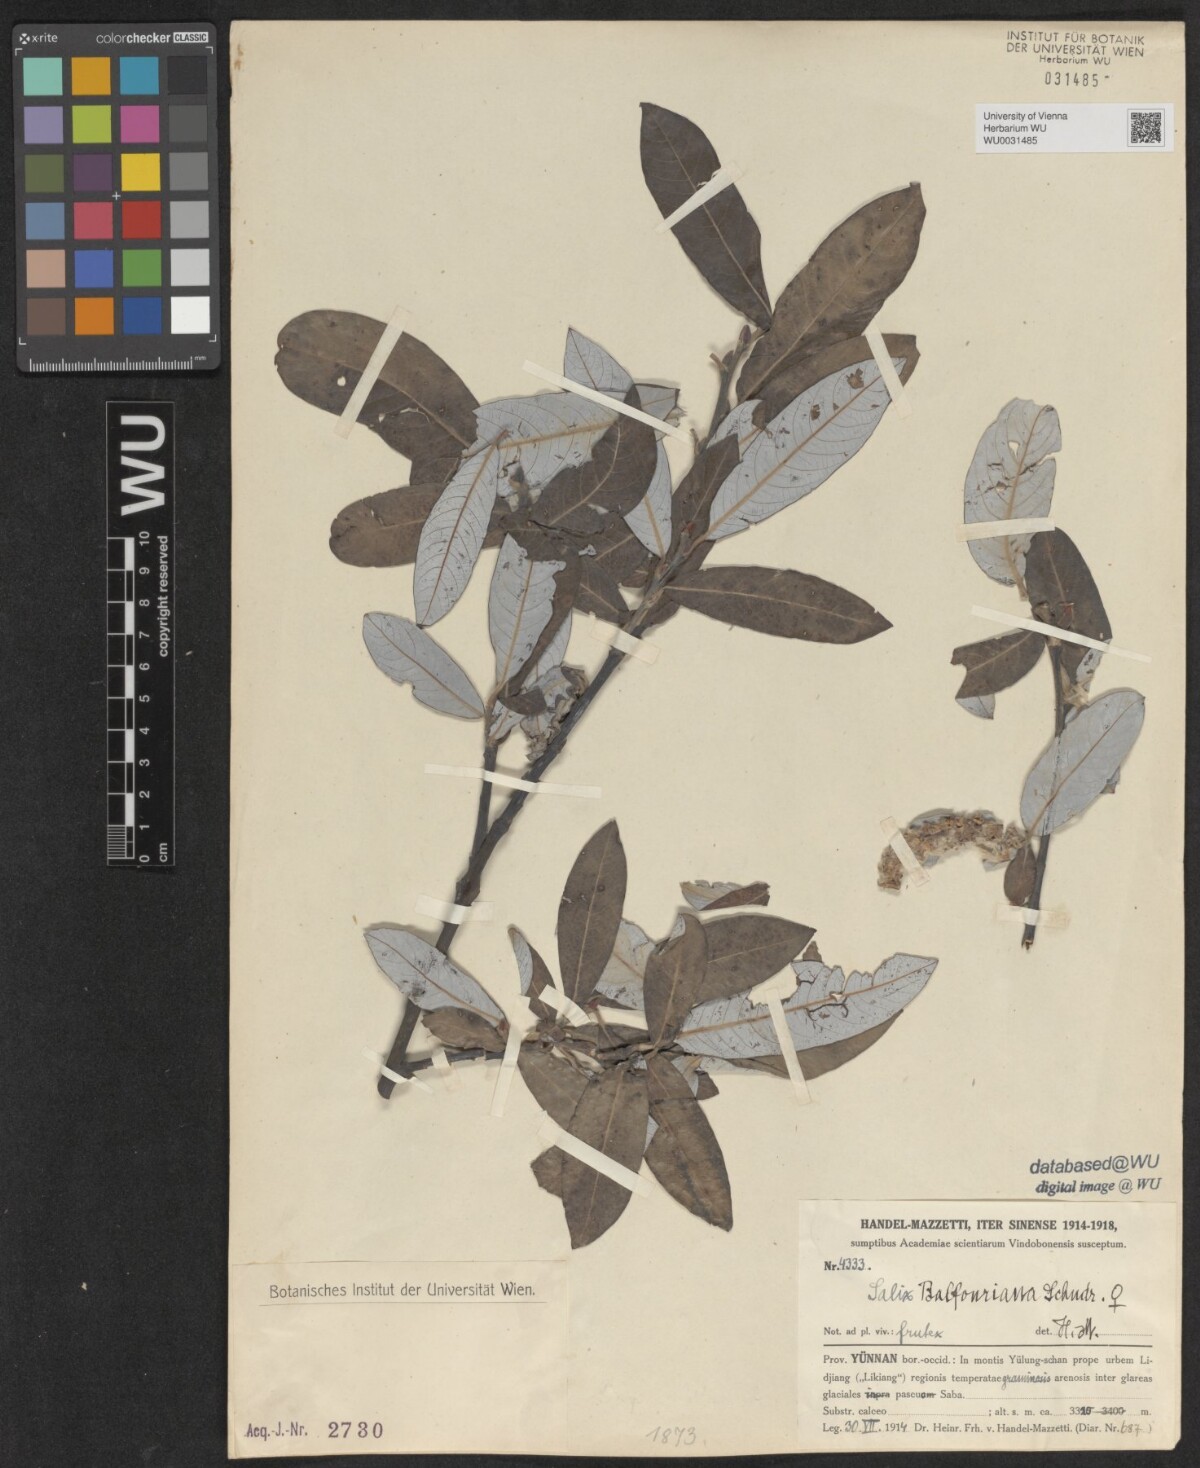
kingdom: Plantae
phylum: Tracheophyta
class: Magnoliopsida
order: Malpighiales
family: Salicaceae
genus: Salix
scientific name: Salix balfouriana
